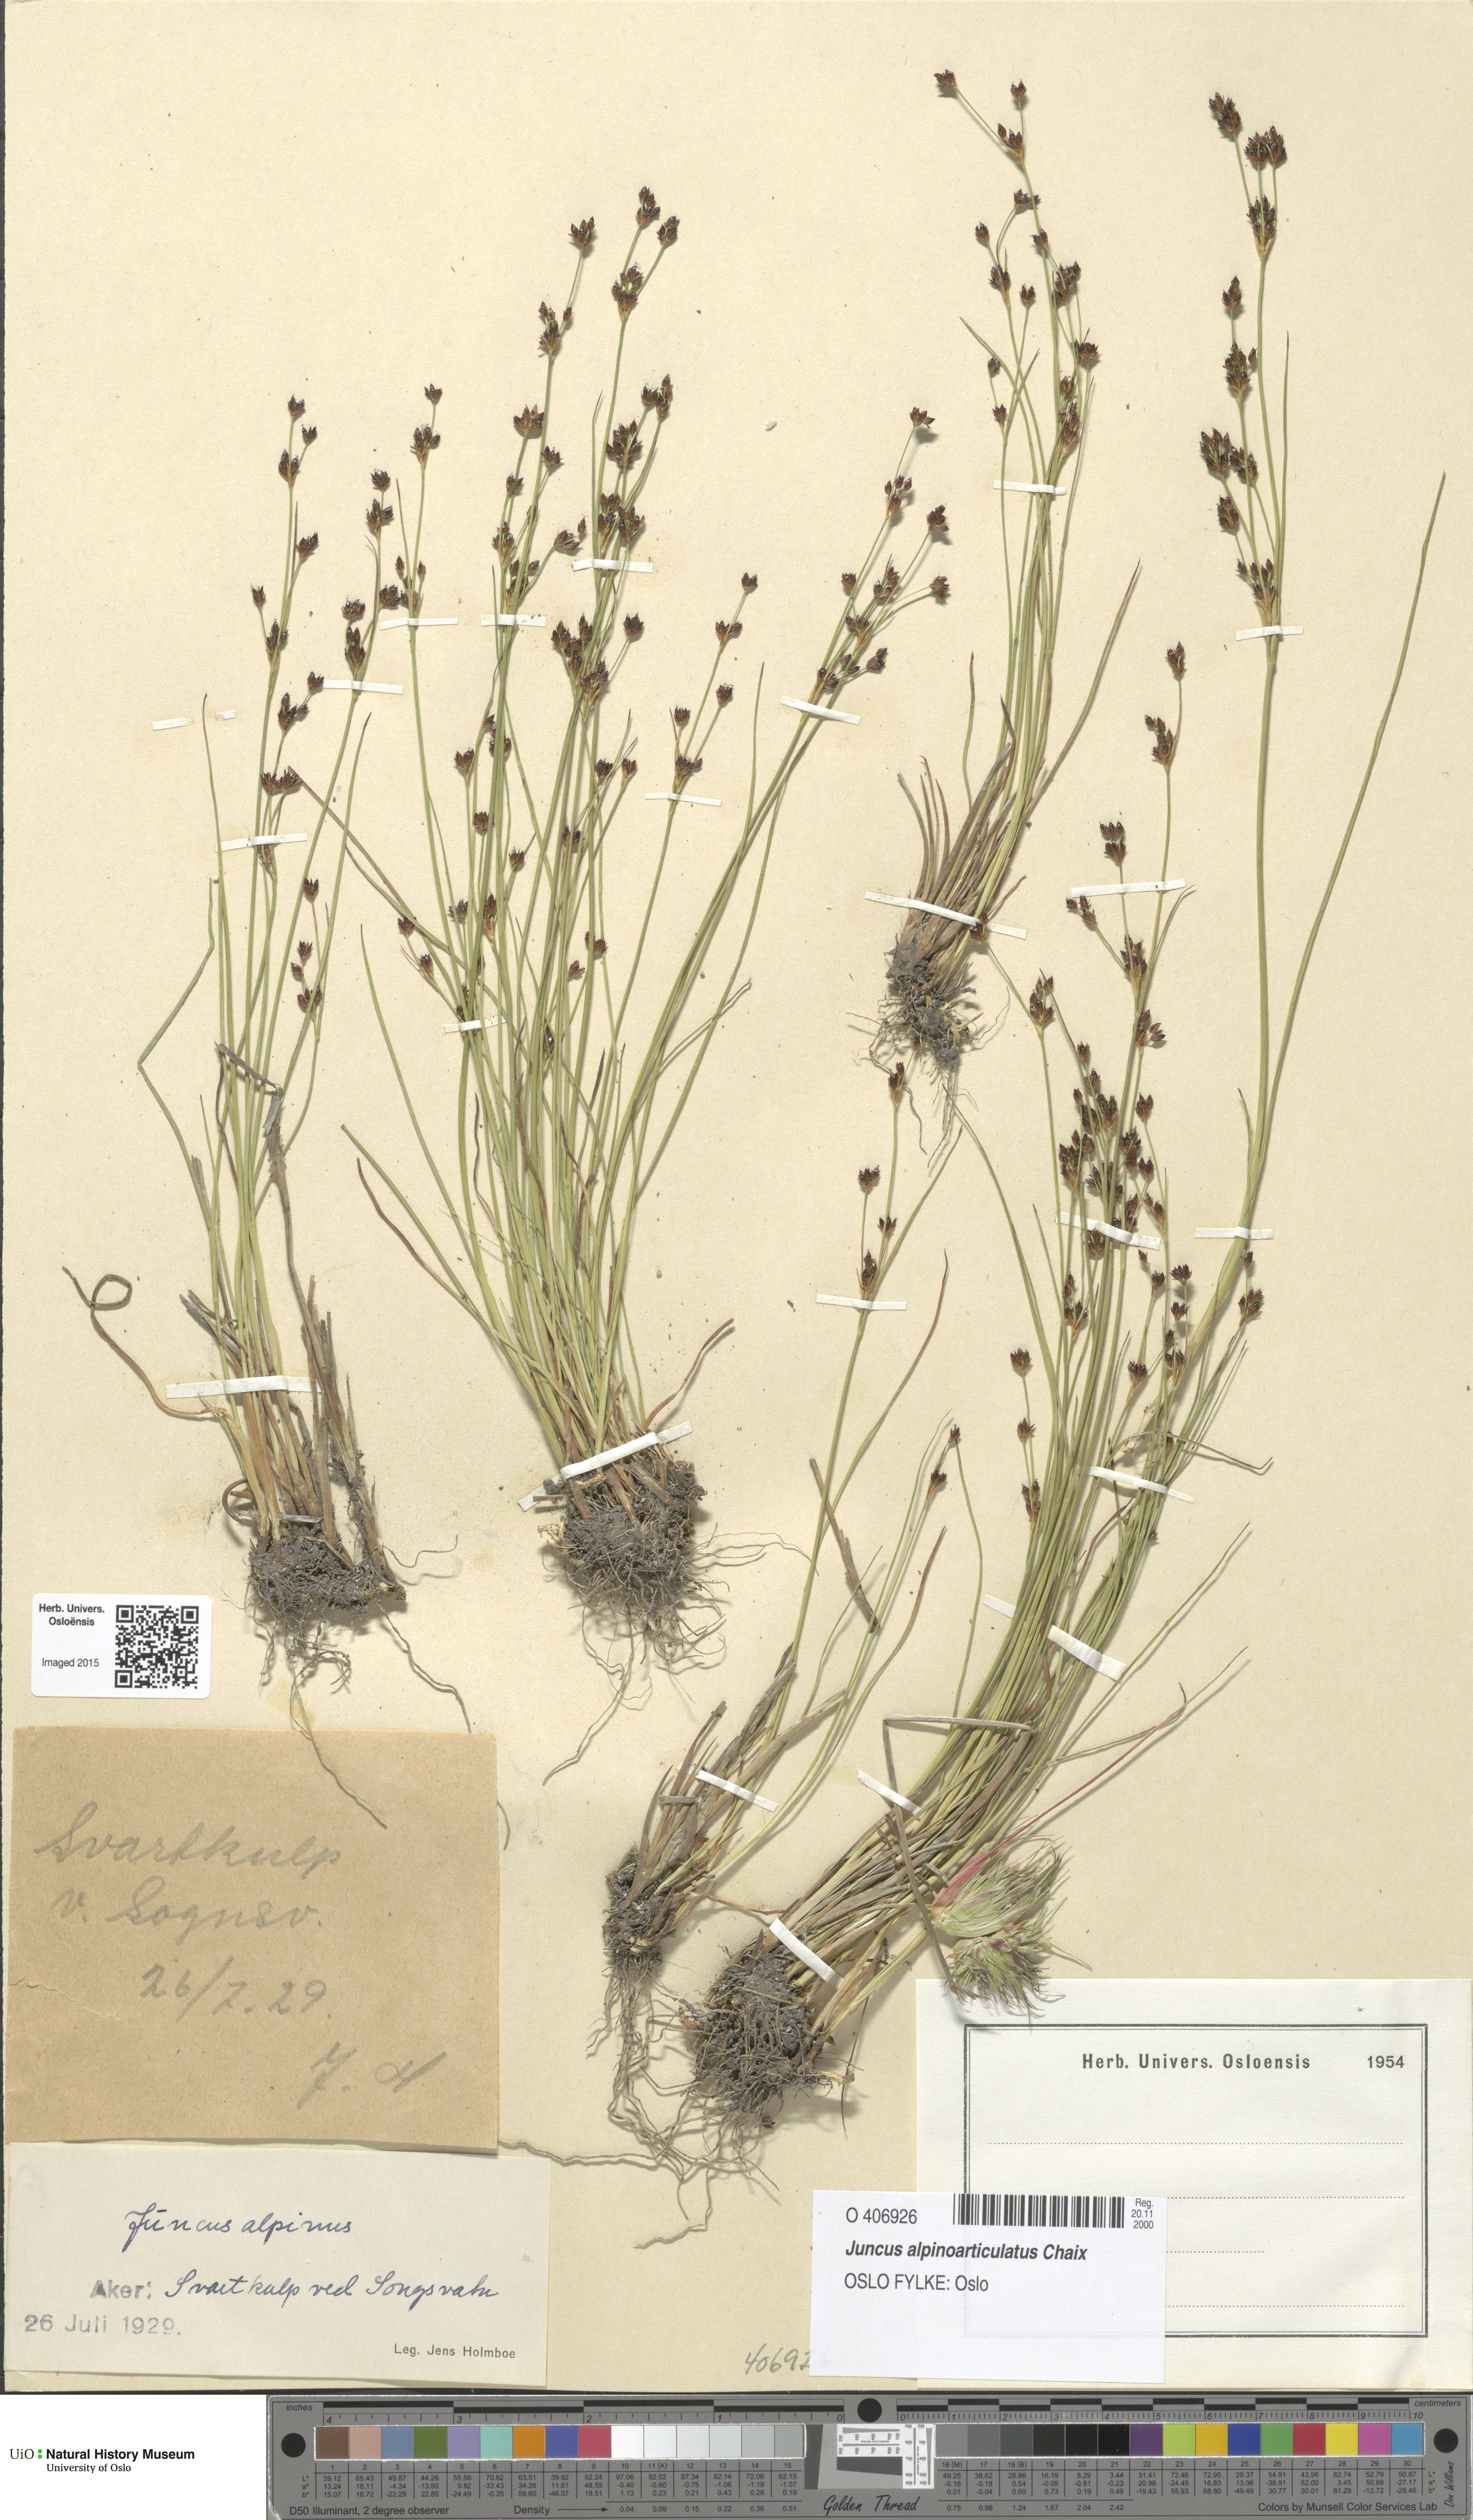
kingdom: Plantae
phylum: Tracheophyta
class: Liliopsida
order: Poales
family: Juncaceae
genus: Juncus
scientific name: Juncus alpinoarticulatus
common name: Alpine rush
